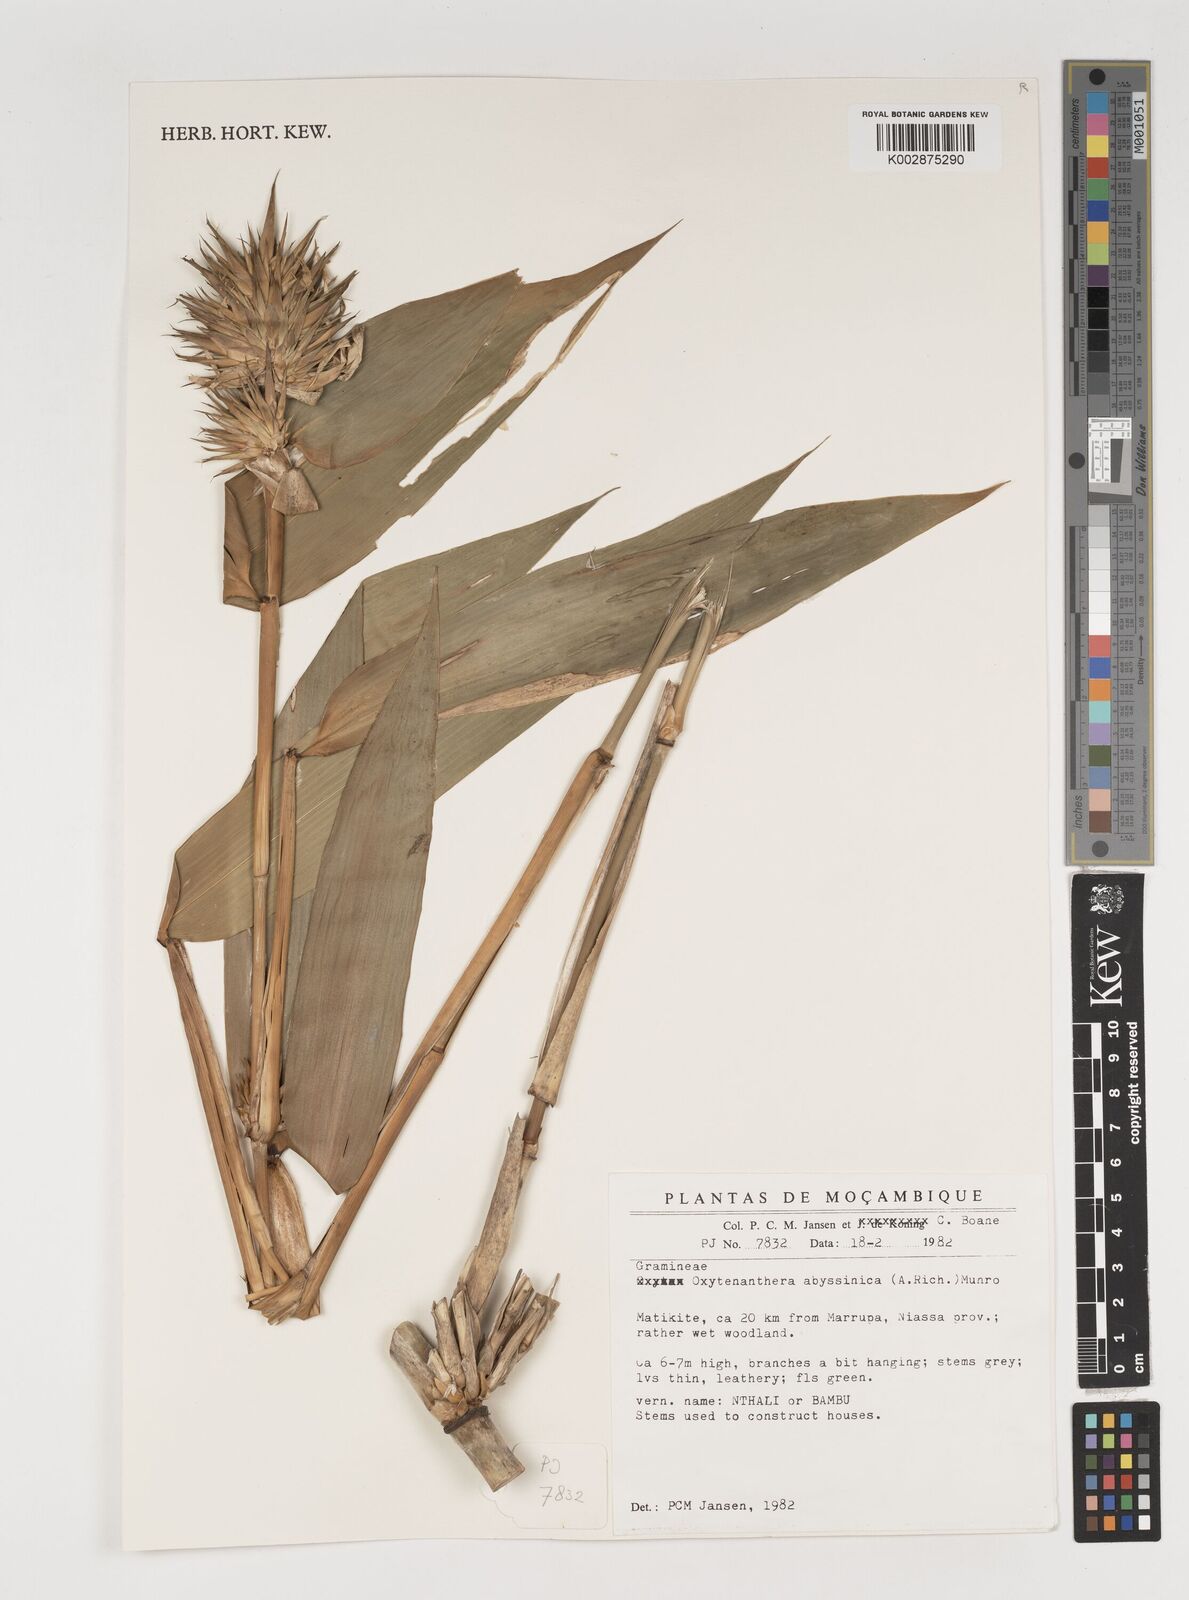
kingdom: Plantae
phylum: Tracheophyta
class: Liliopsida
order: Poales
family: Poaceae
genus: Oxytenanthera
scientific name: Oxytenanthera abyssinica
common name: Wine bamboo
